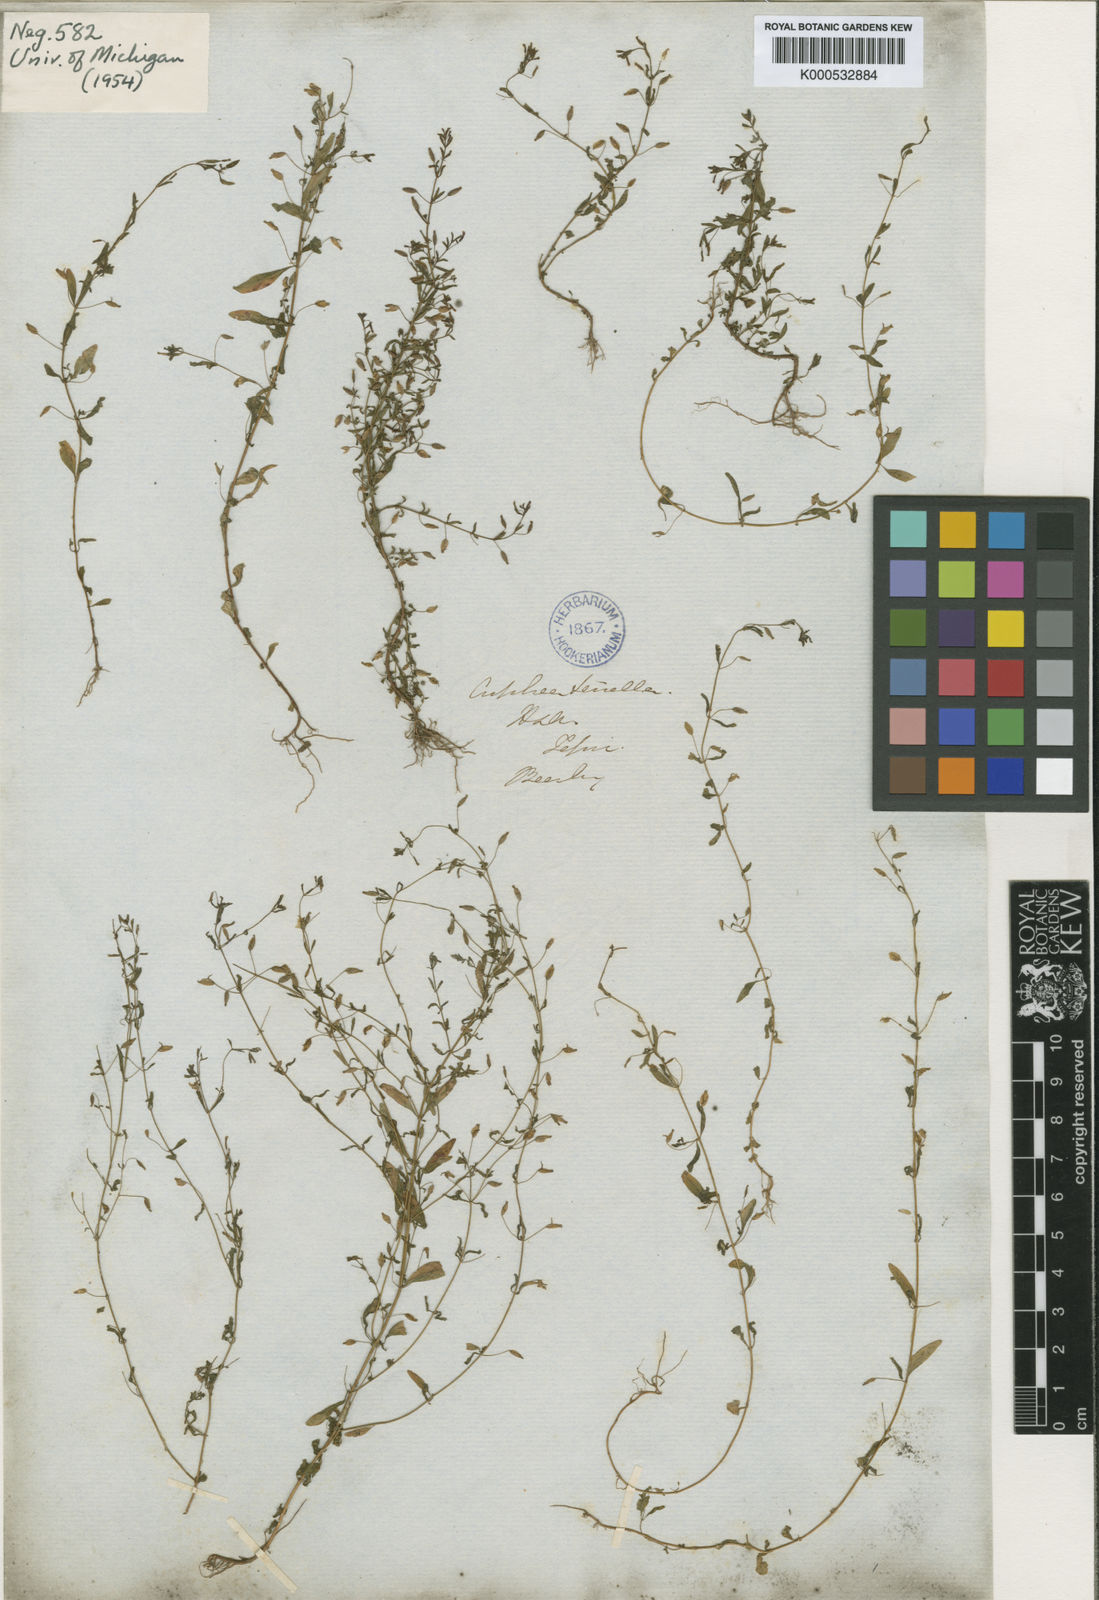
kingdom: Plantae
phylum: Tracheophyta
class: Magnoliopsida
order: Myrtales
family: Lythraceae
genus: Cuphea
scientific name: Cuphea mimuloides
